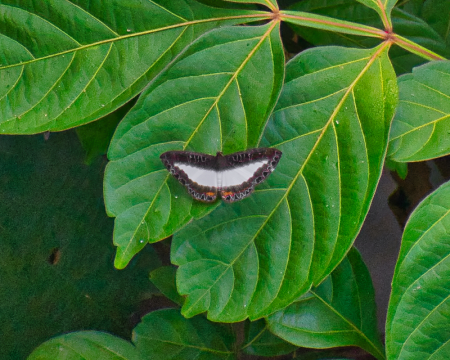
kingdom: Animalia
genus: Nymphidium
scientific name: Nymphidium azanoides
